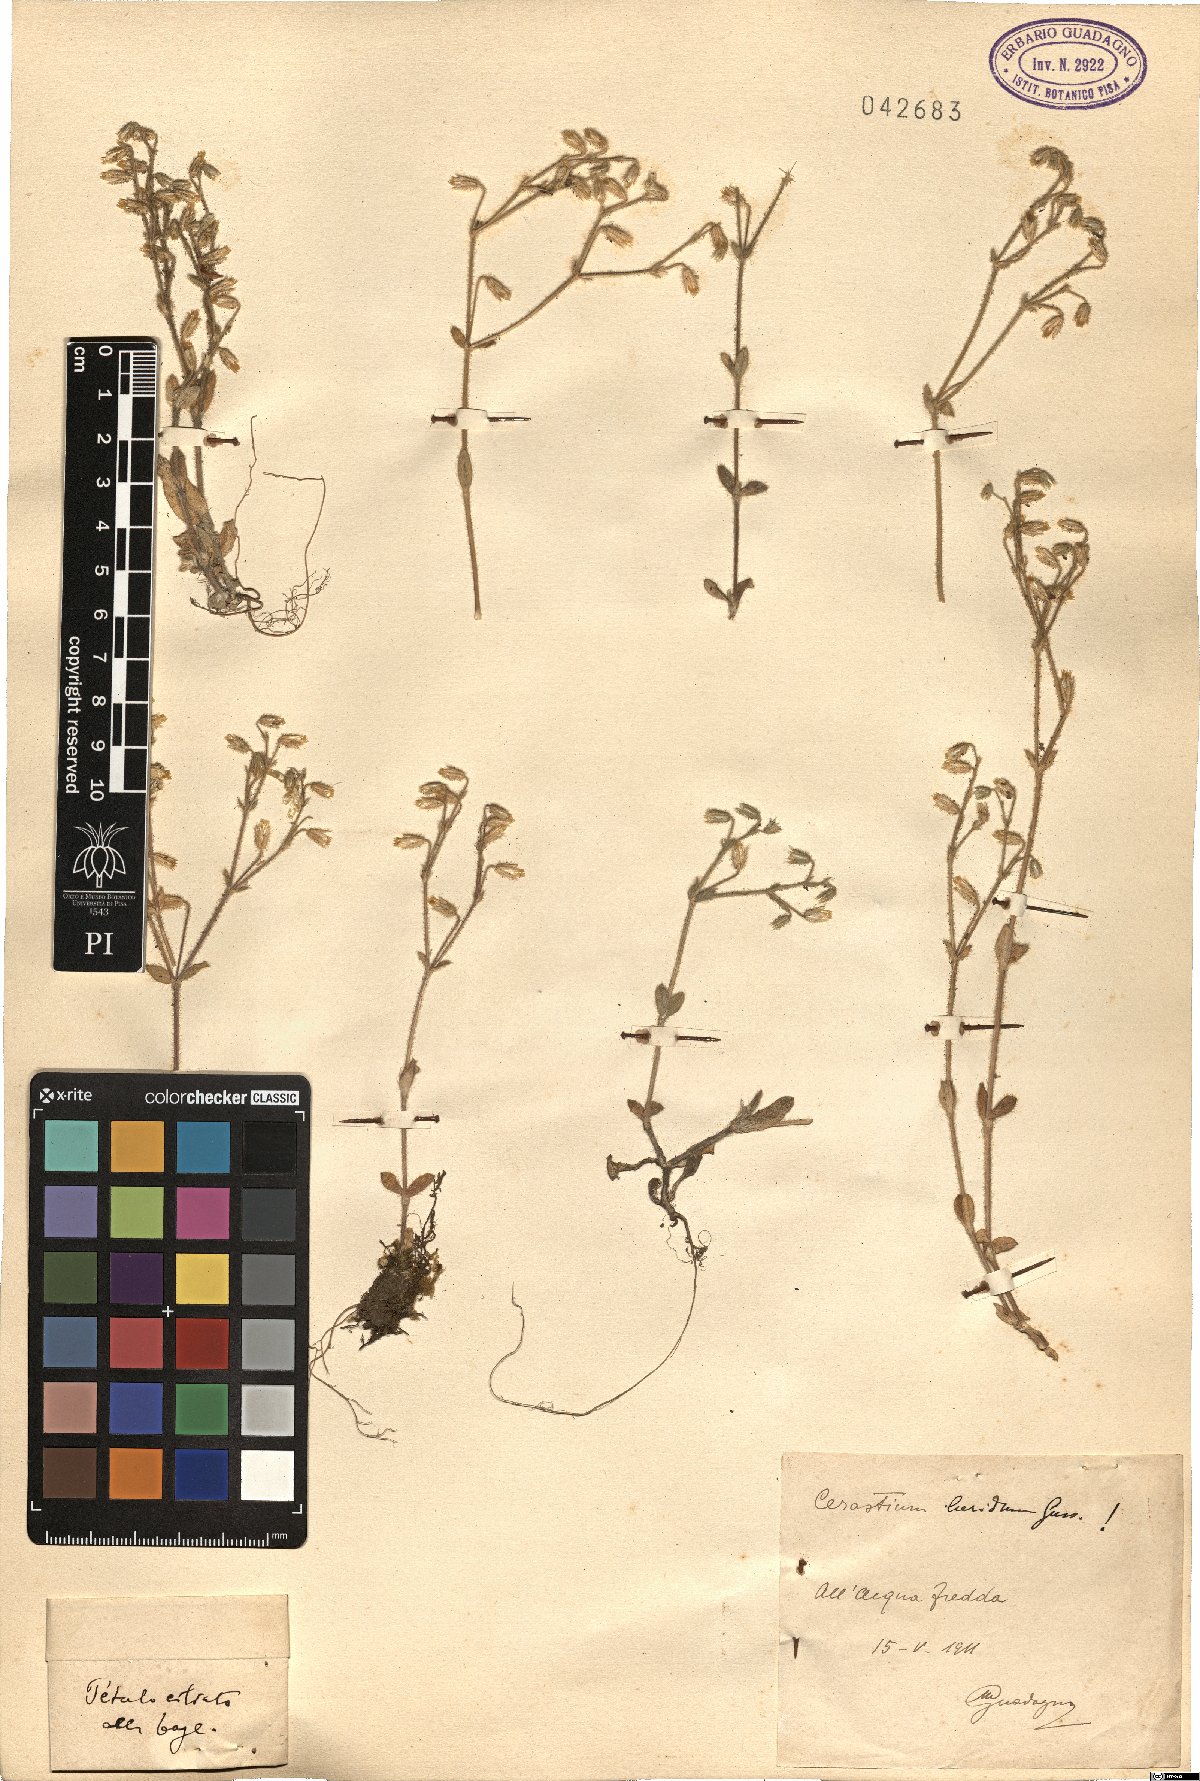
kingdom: Plantae
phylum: Tracheophyta
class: Magnoliopsida
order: Caryophyllales
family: Caryophyllaceae
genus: Cerastium
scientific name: Cerastium brachypetalum
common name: Grey mouse-ear
